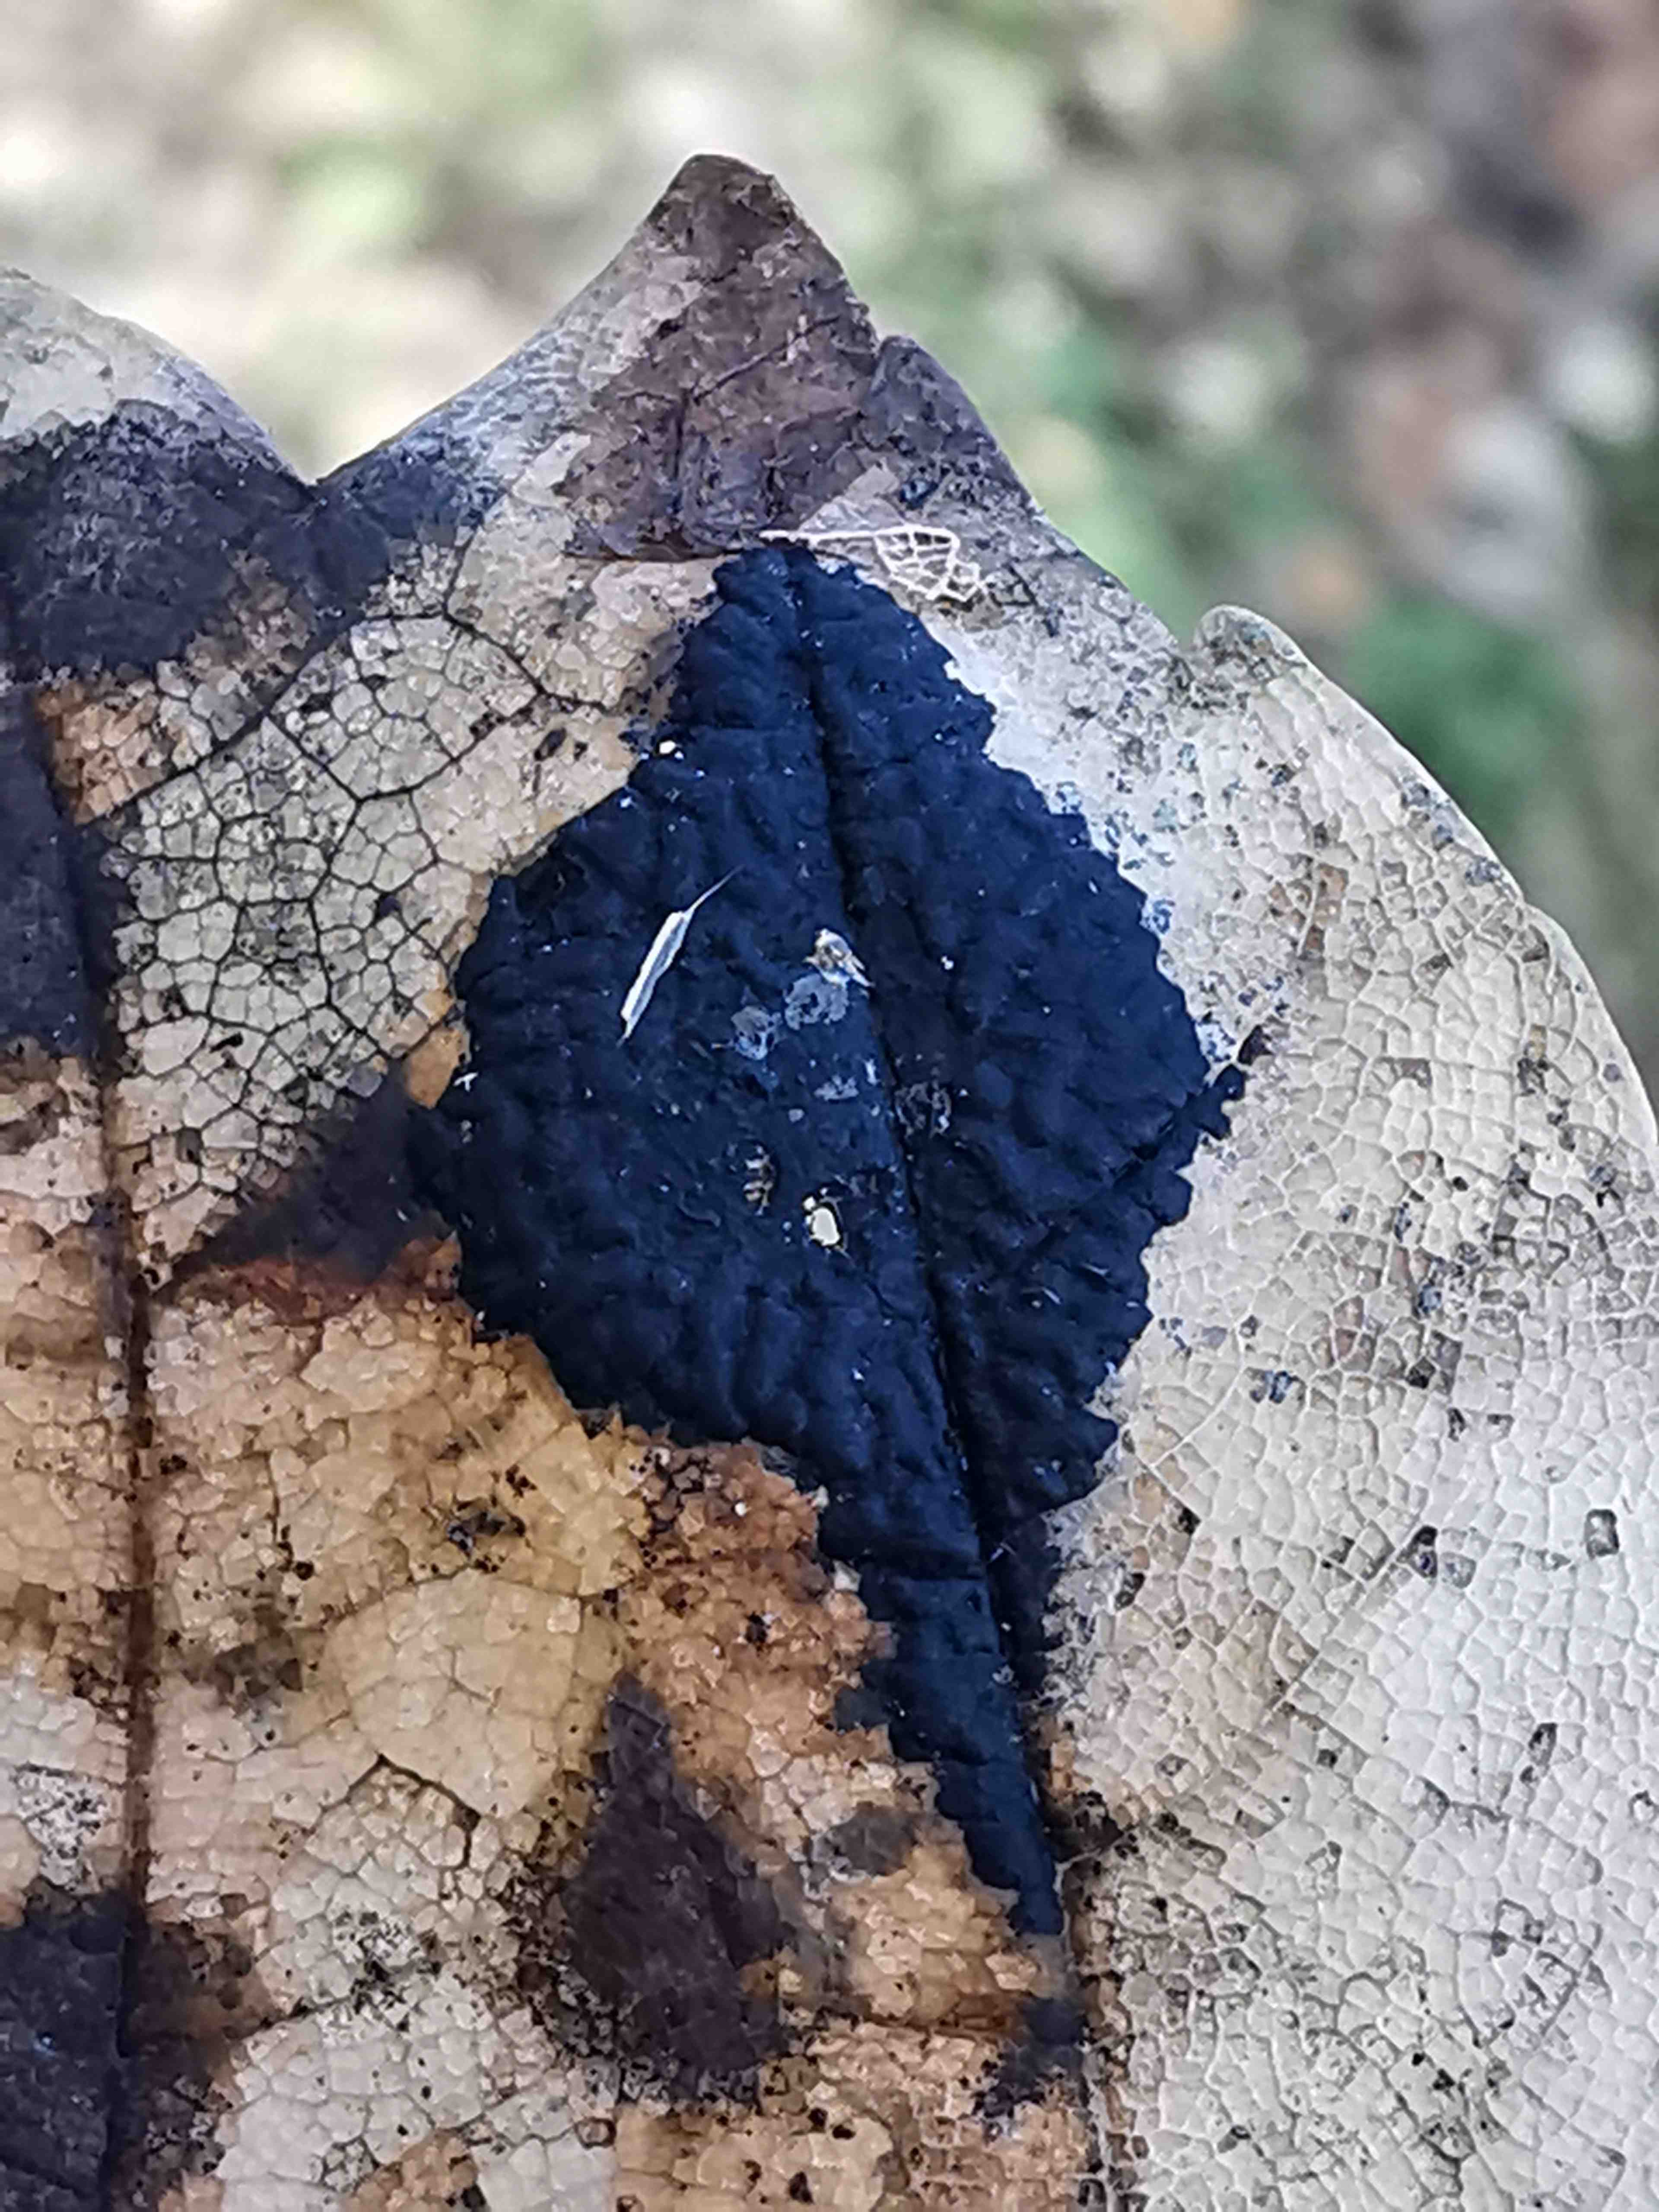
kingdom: Fungi
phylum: Ascomycota
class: Leotiomycetes
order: Rhytismatales
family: Rhytismataceae
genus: Rhytisma
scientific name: Rhytisma acerinum
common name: ahorn-rynkeplet
